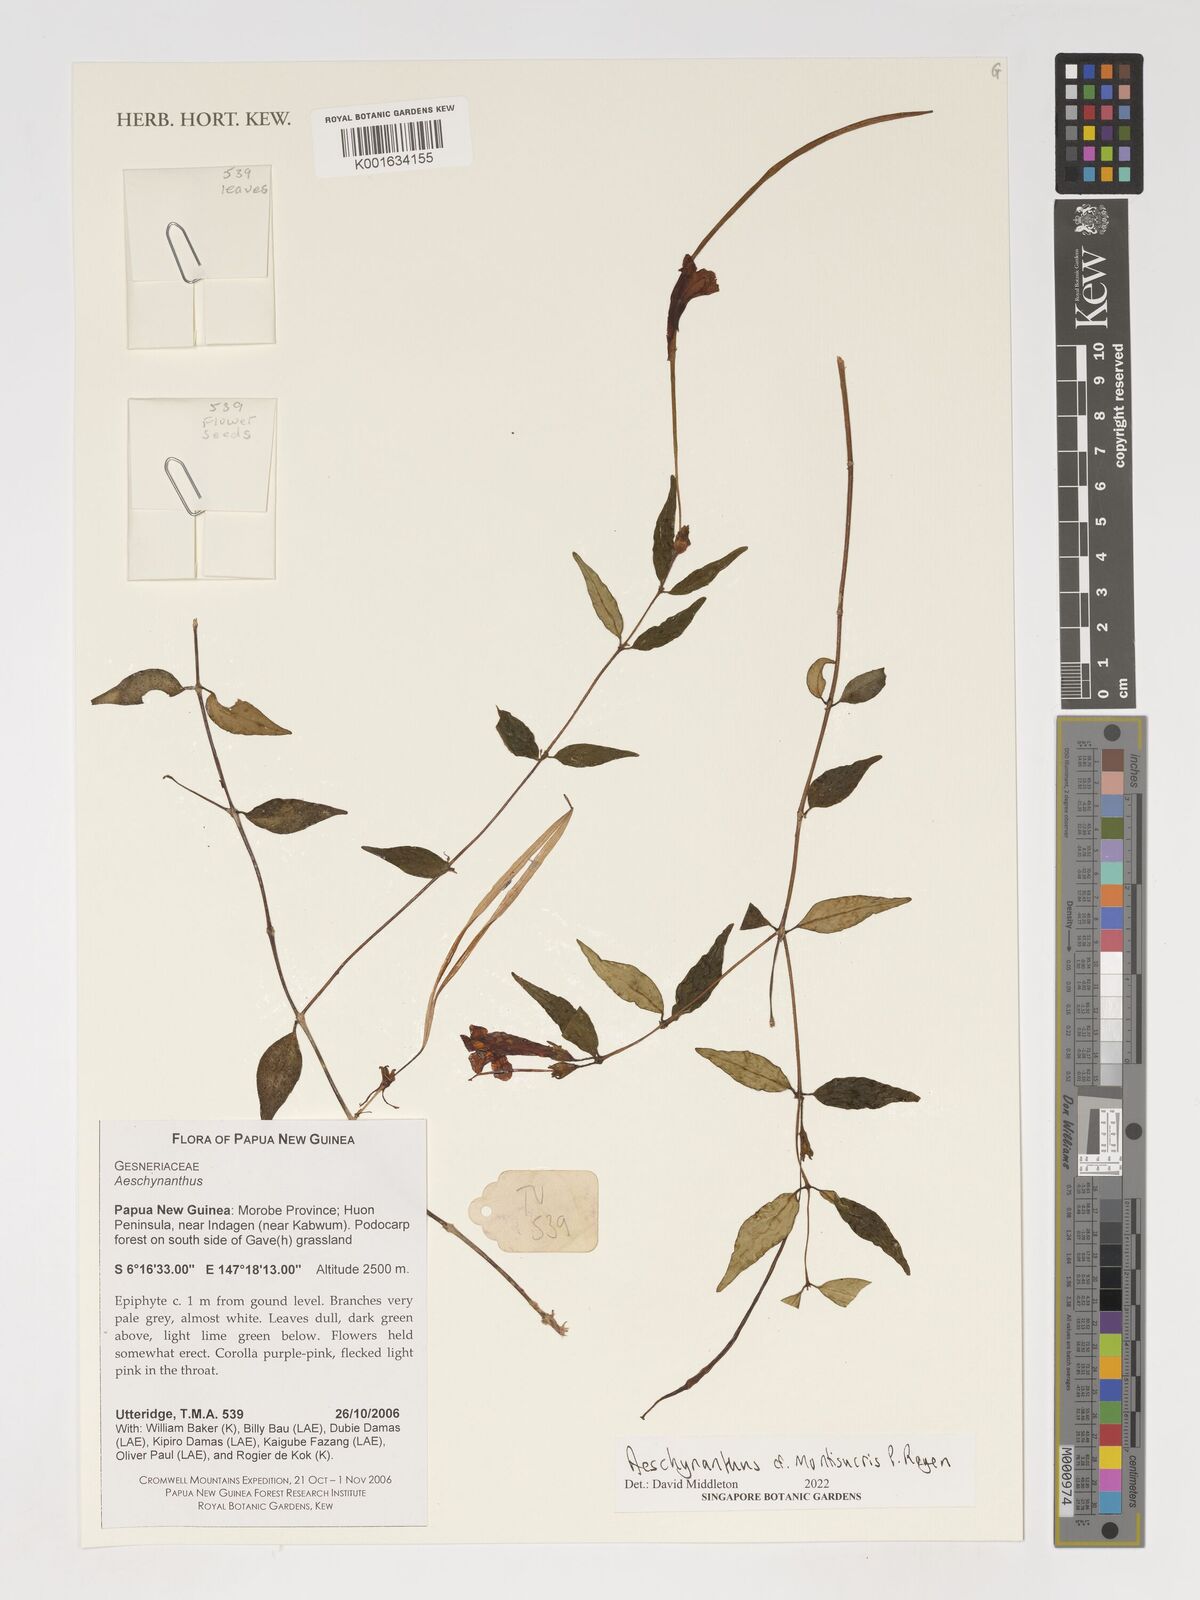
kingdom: Plantae
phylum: Tracheophyta
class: Magnoliopsida
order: Lamiales
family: Gesneriaceae
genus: Aeschynanthus
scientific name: Aeschynanthus montisucris
